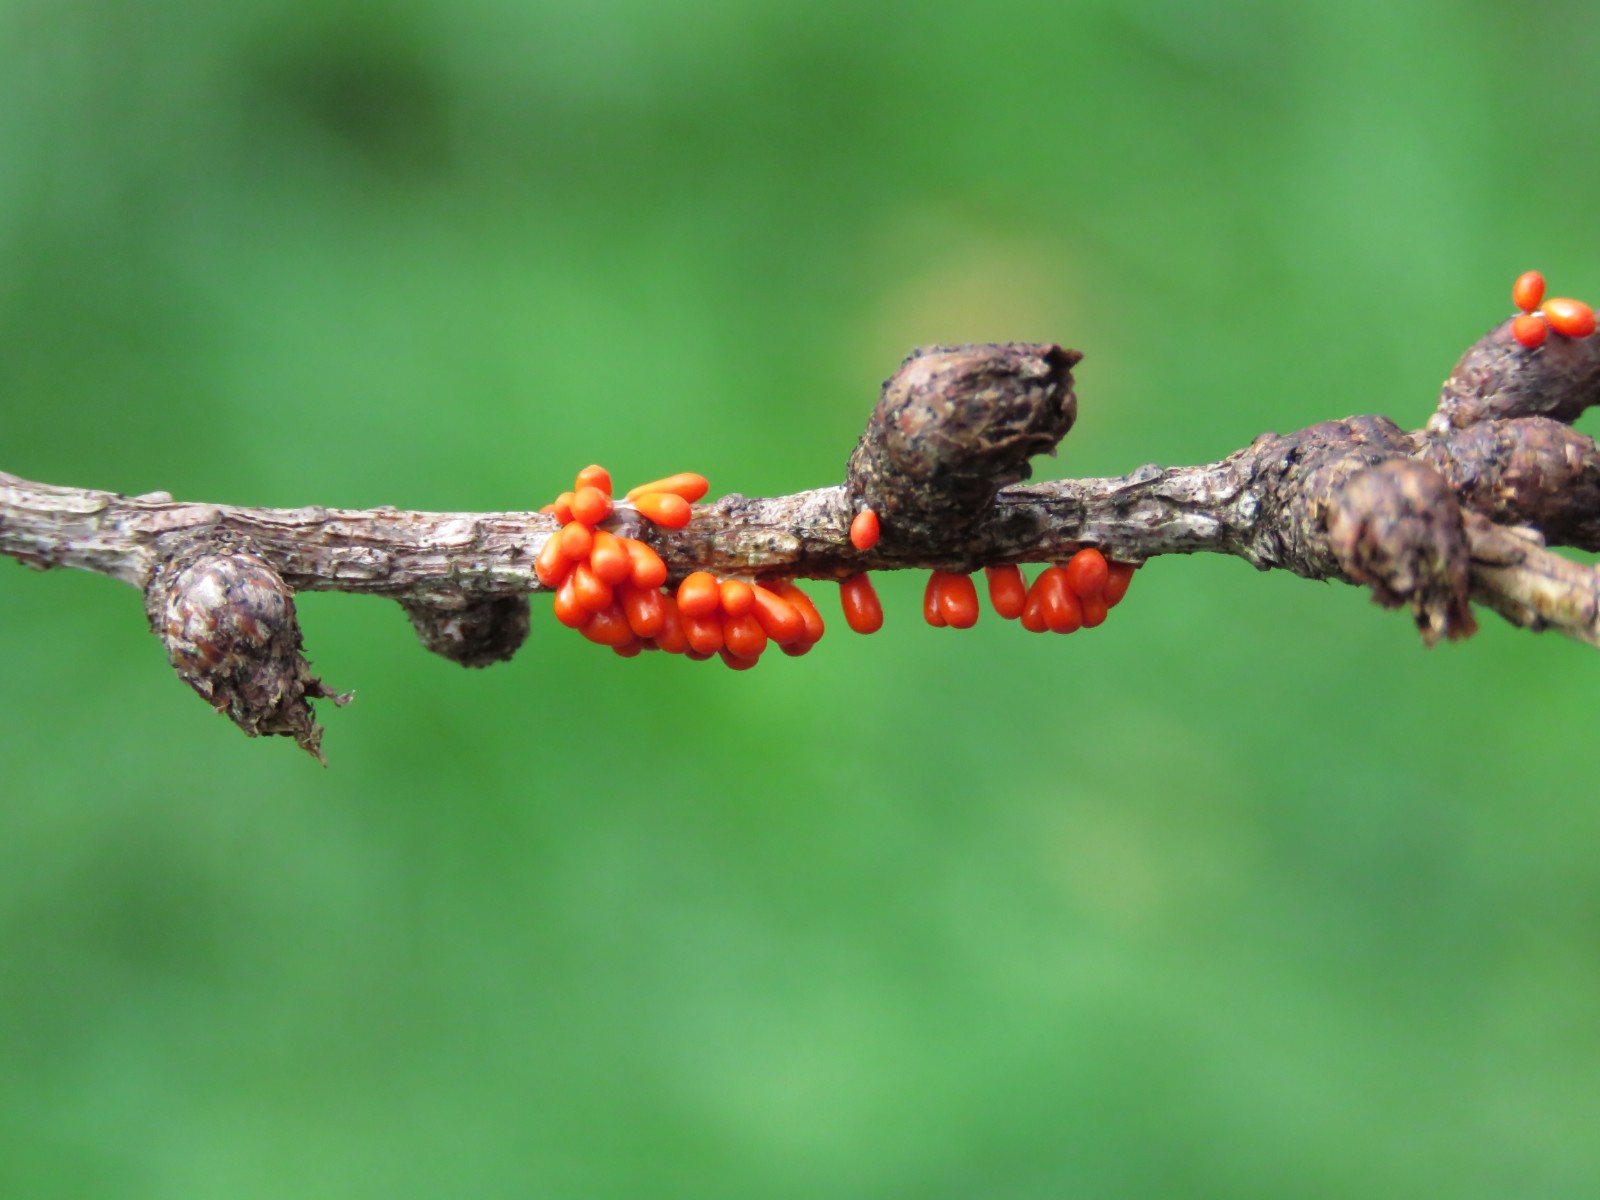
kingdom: Protozoa
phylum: Mycetozoa
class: Myxomycetes
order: Physarales
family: Physaraceae
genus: Leocarpus
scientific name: Leocarpus fragilis
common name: poleret glatfrø
